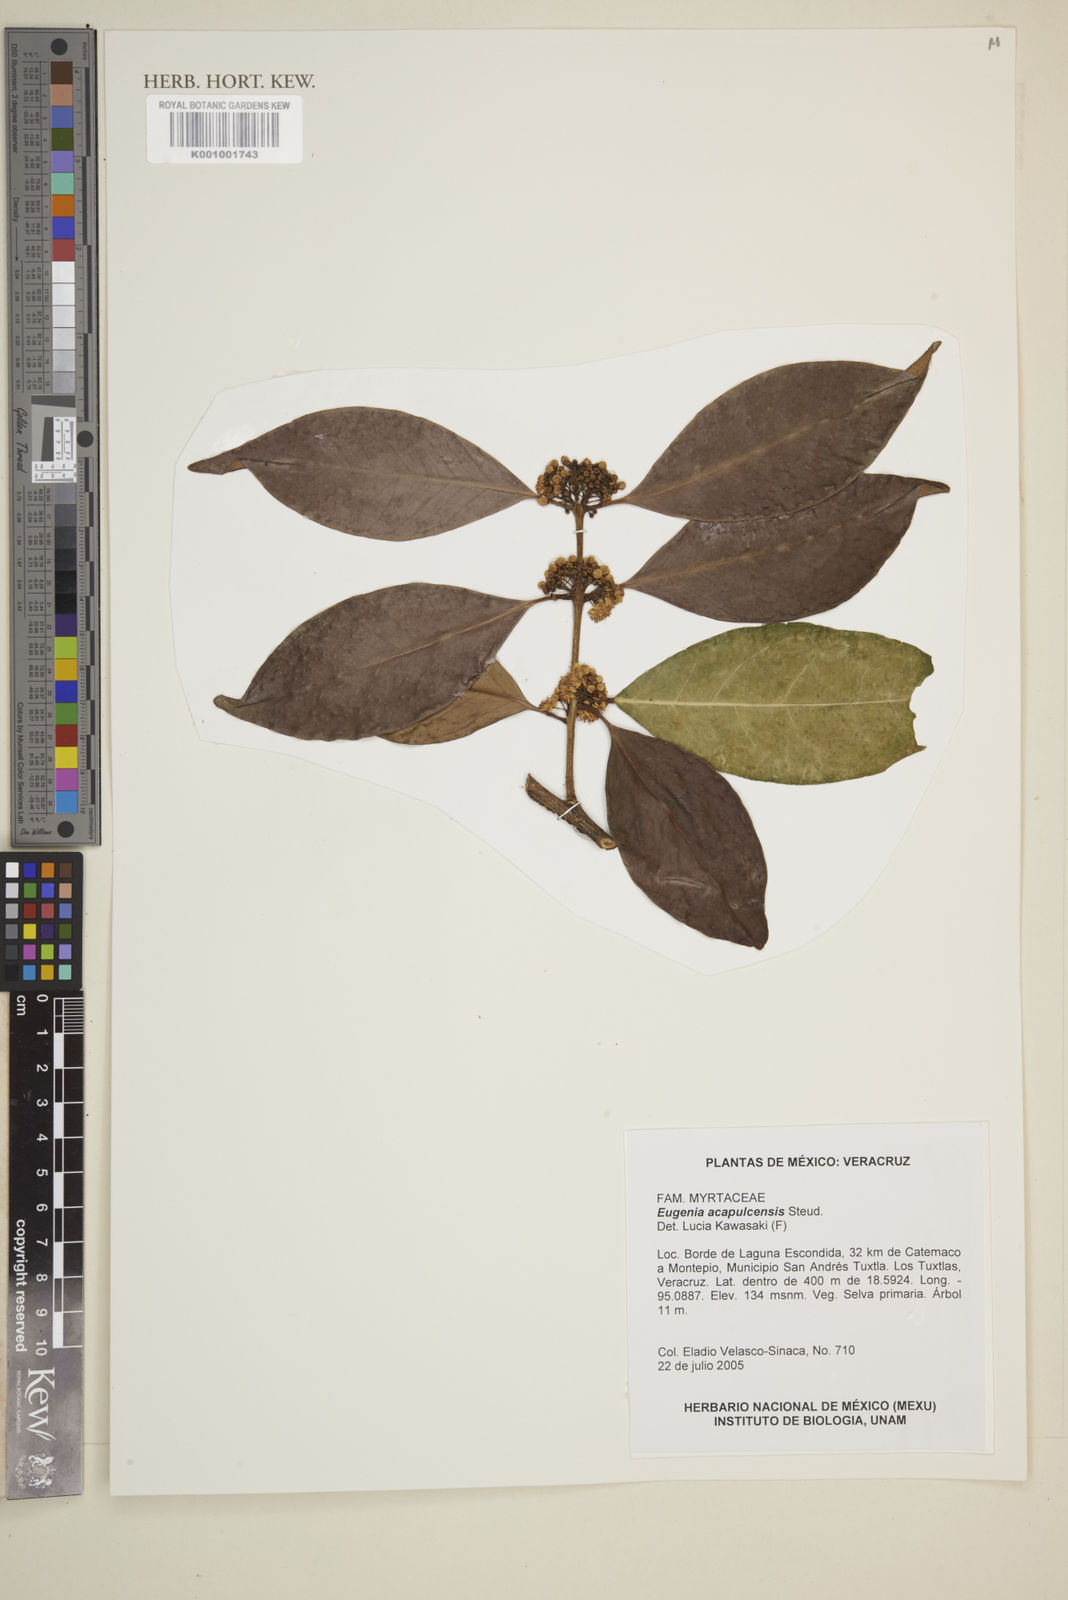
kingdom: Plantae
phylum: Tracheophyta
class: Magnoliopsida
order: Myrtales
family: Myrtaceae
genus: Eugenia
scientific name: Eugenia acapulcensis
